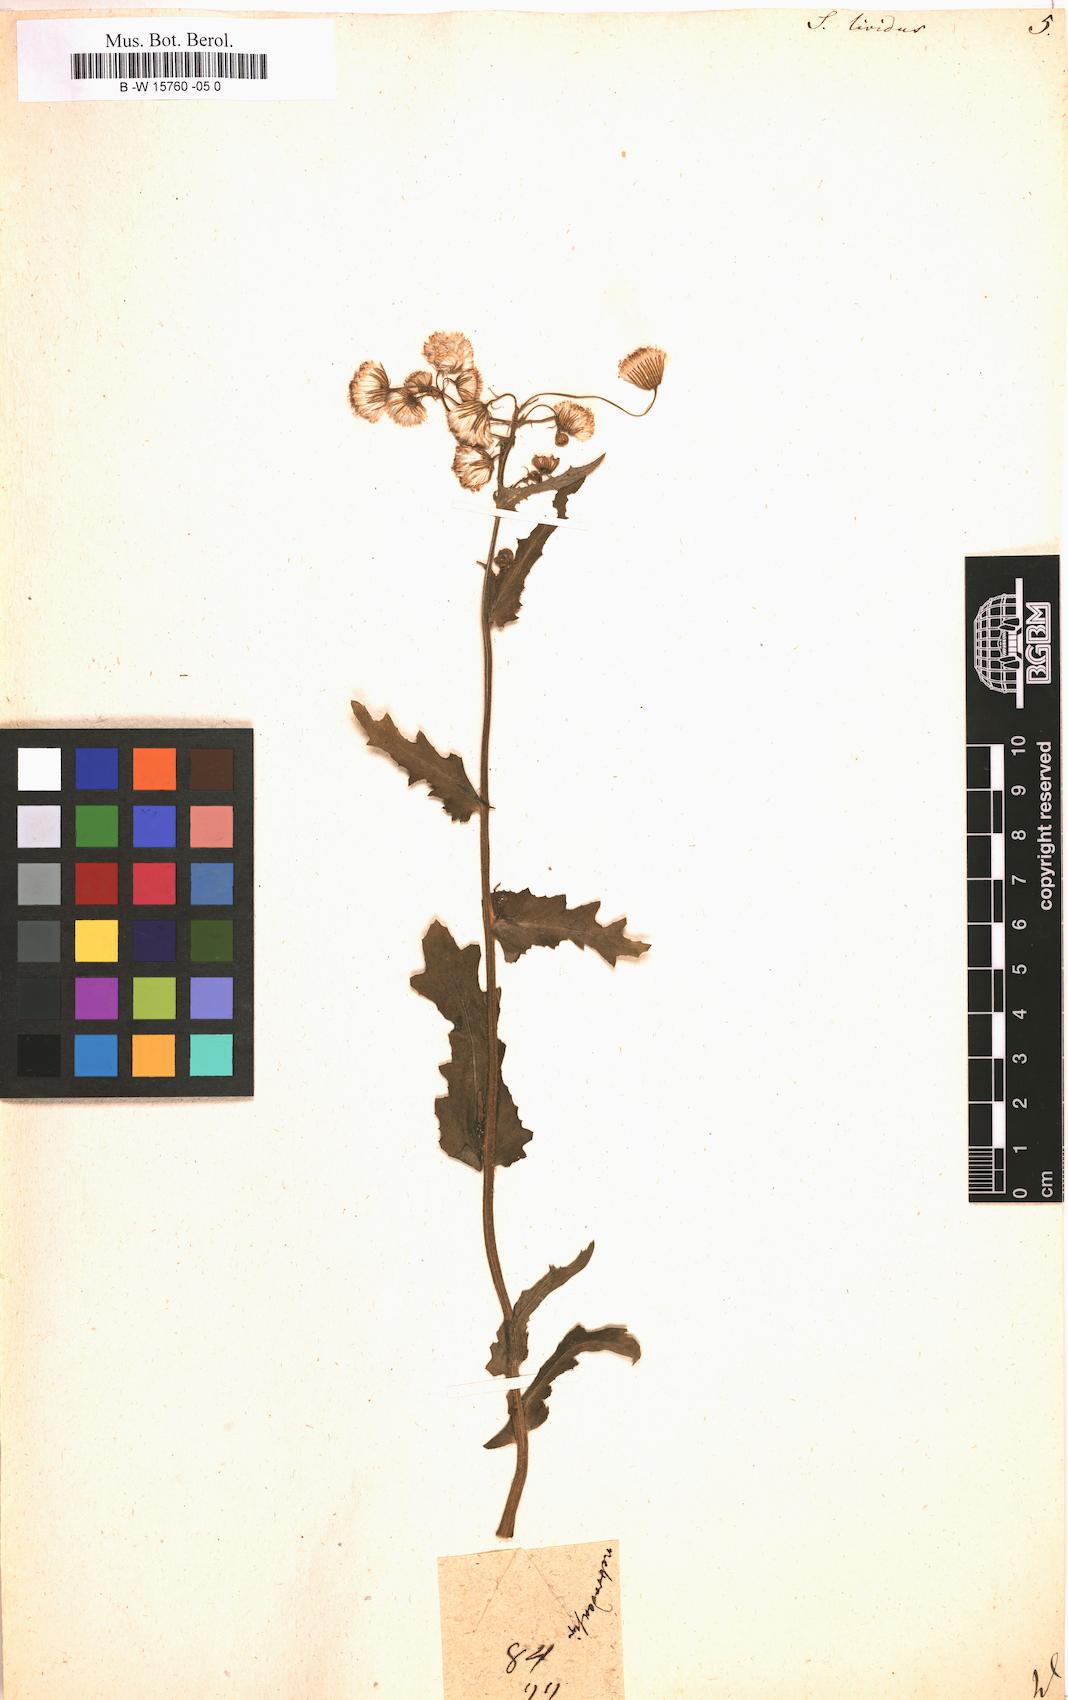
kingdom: Plantae
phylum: Tracheophyta
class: Magnoliopsida
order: Asterales
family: Asteraceae
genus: Senecio
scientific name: Senecio lividus
